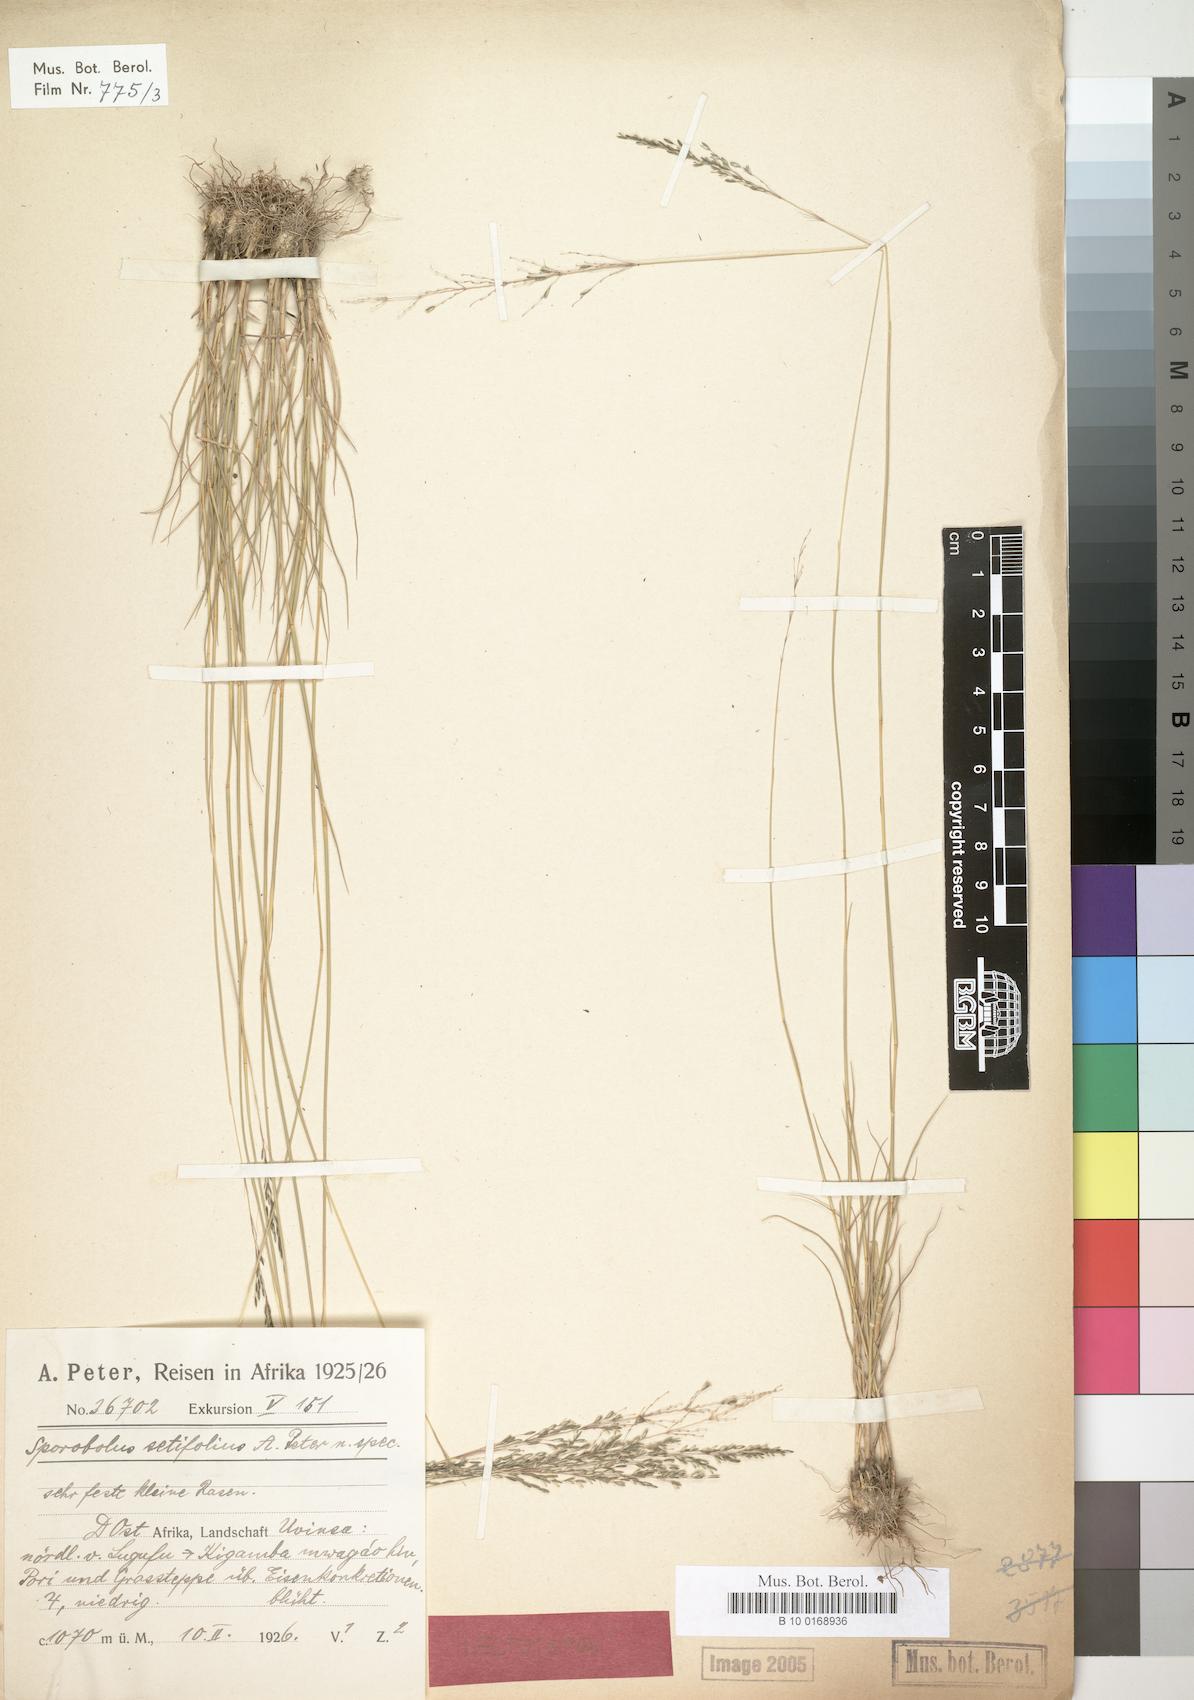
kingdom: Plantae
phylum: Tracheophyta
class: Liliopsida
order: Poales
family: Poaceae
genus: Sporobolus
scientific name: Sporobolus subulatus
